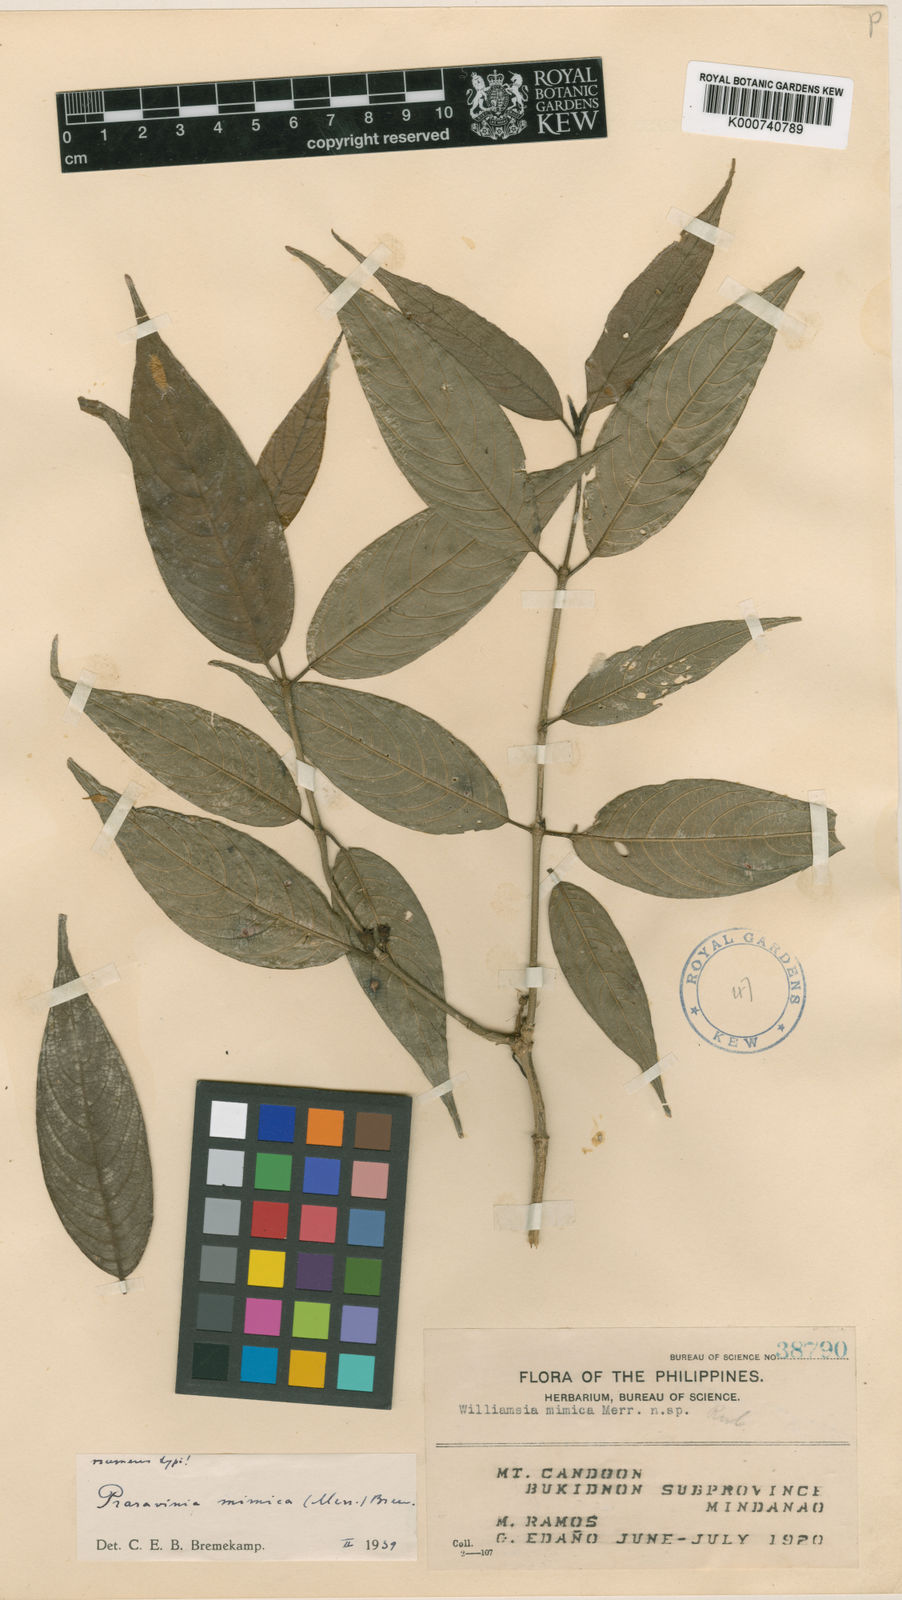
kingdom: Plantae
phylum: Tracheophyta
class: Magnoliopsida
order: Gentianales
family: Rubiaceae
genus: Praravinia
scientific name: Praravinia mimica
